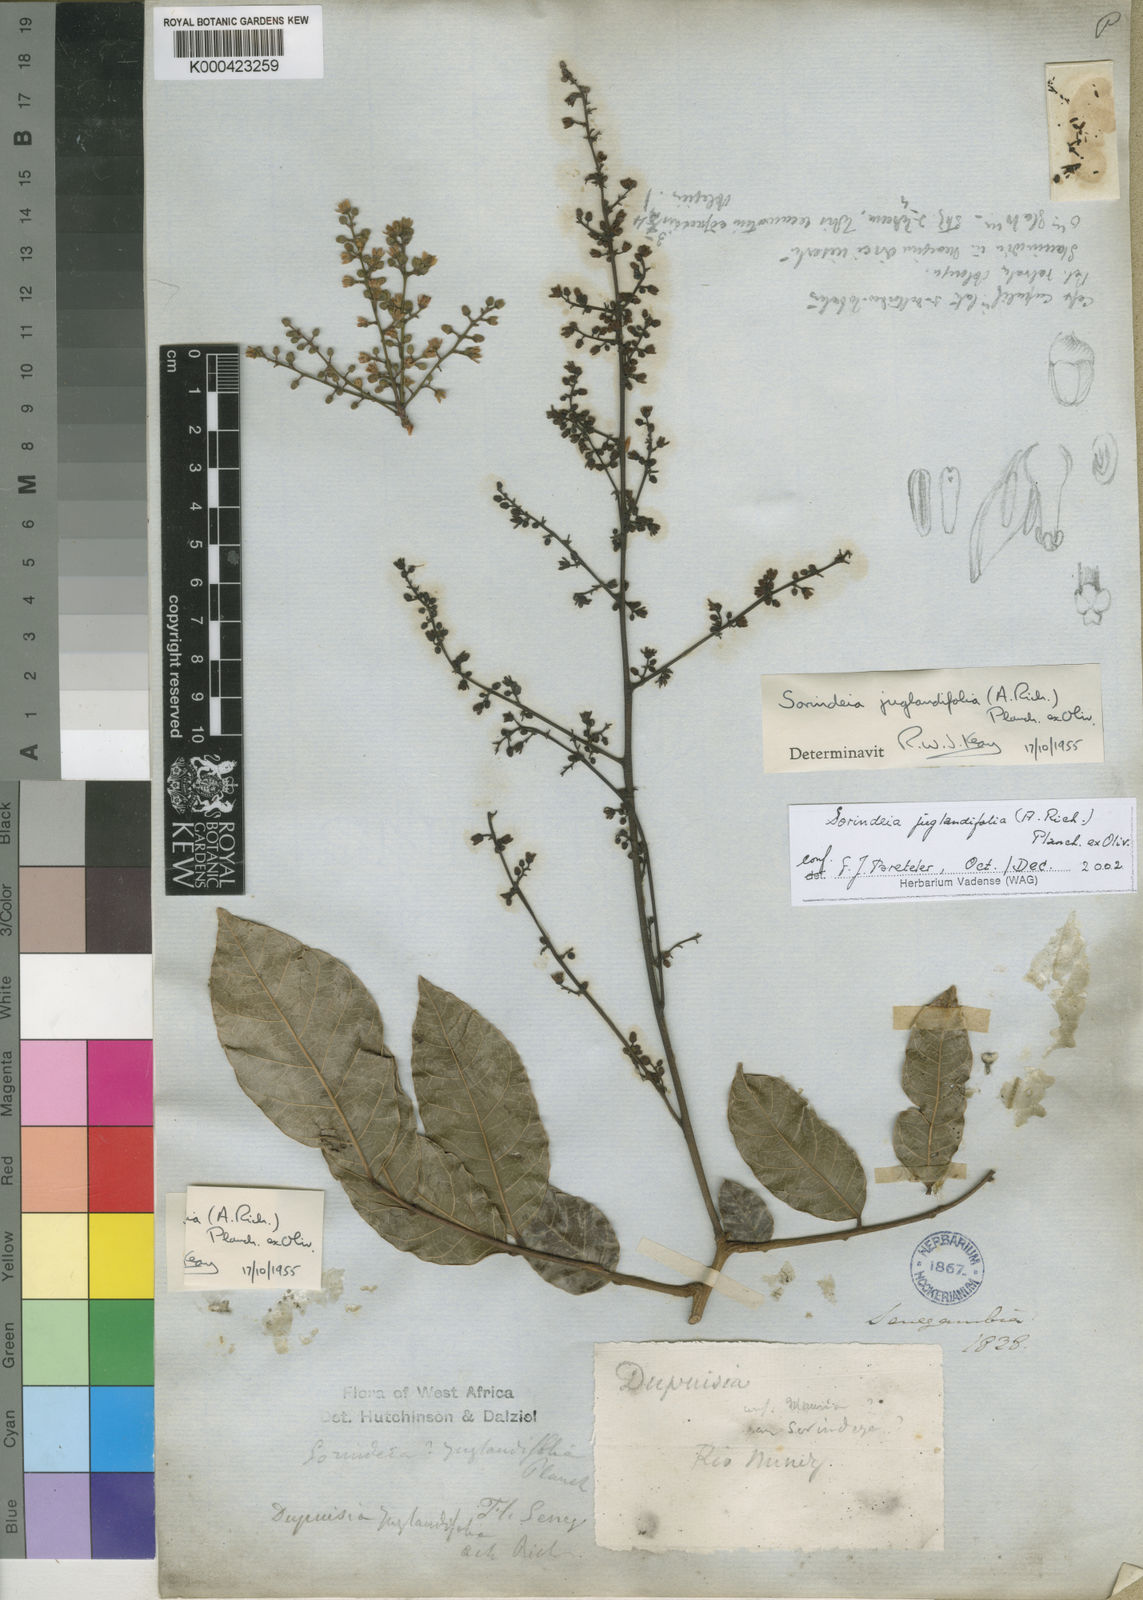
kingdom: Plantae
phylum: Tracheophyta
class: Magnoliopsida
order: Sapindales
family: Anacardiaceae
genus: Sorindeia
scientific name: Sorindeia juglandifolia
